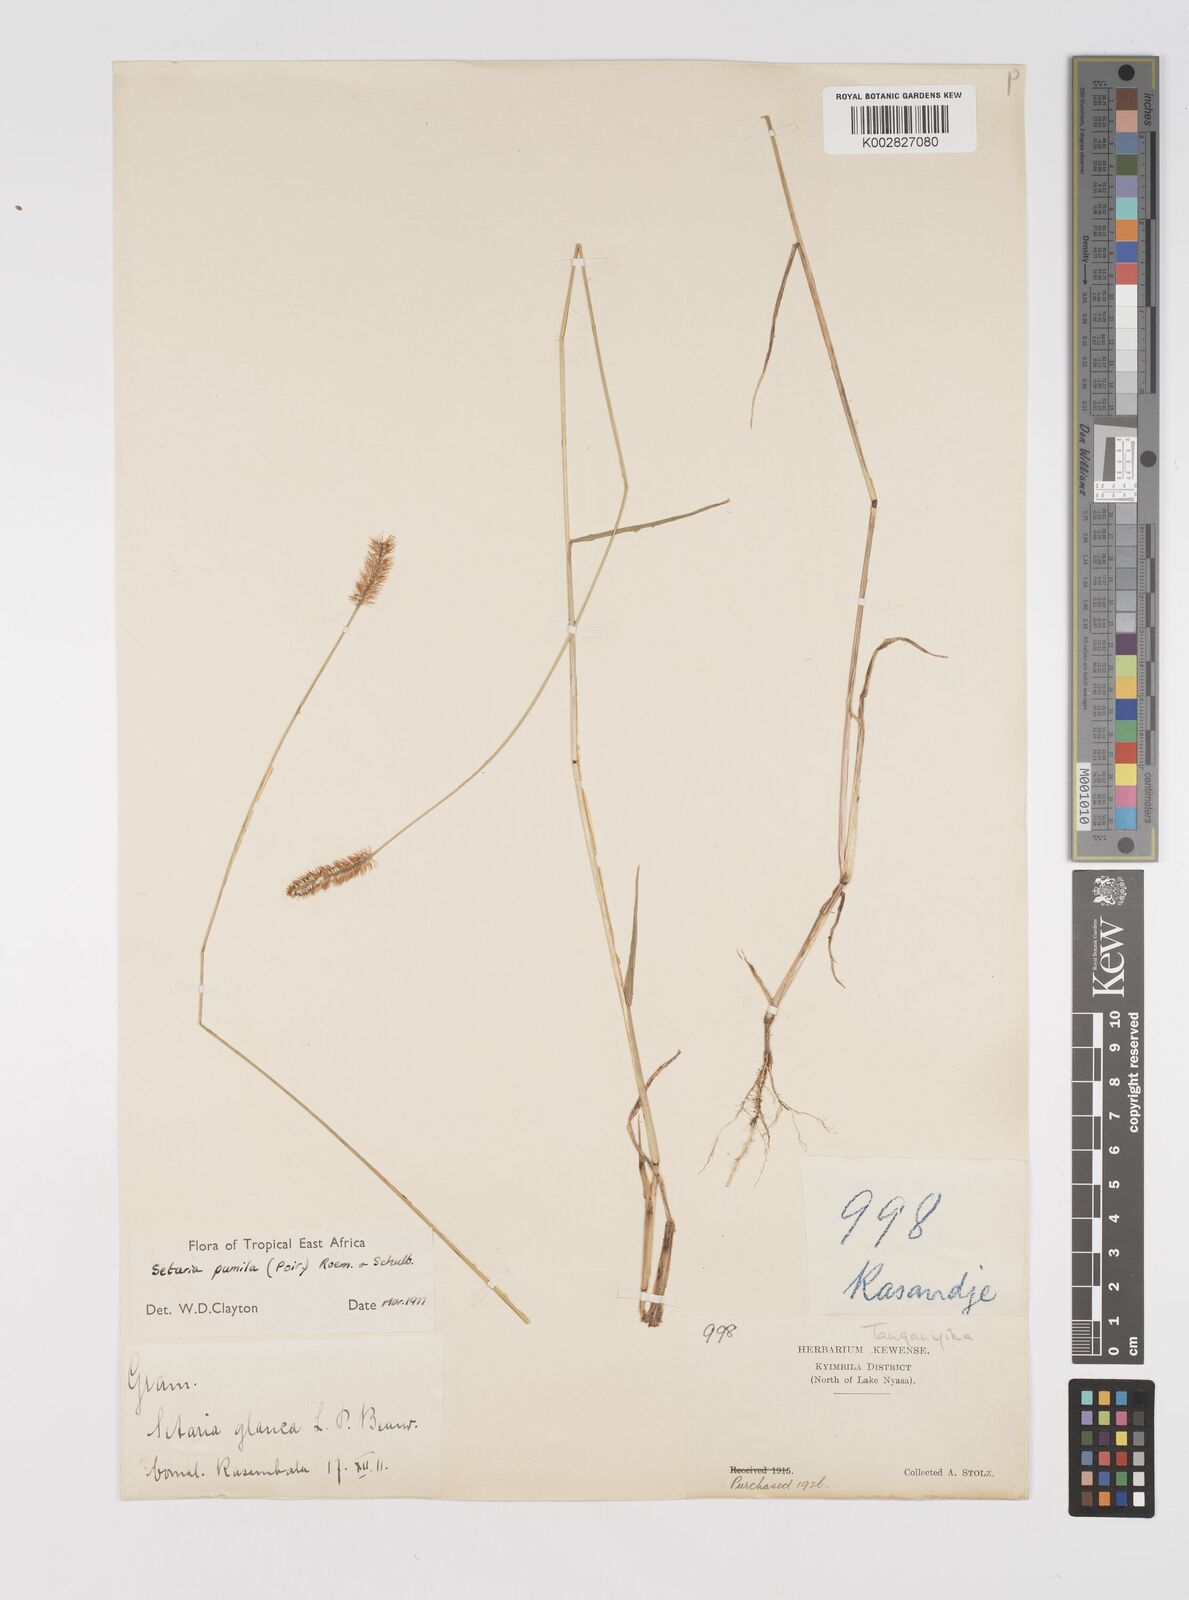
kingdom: Plantae
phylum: Tracheophyta
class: Liliopsida
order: Poales
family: Poaceae
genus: Setaria
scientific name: Setaria pumila
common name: Yellow bristle-grass
